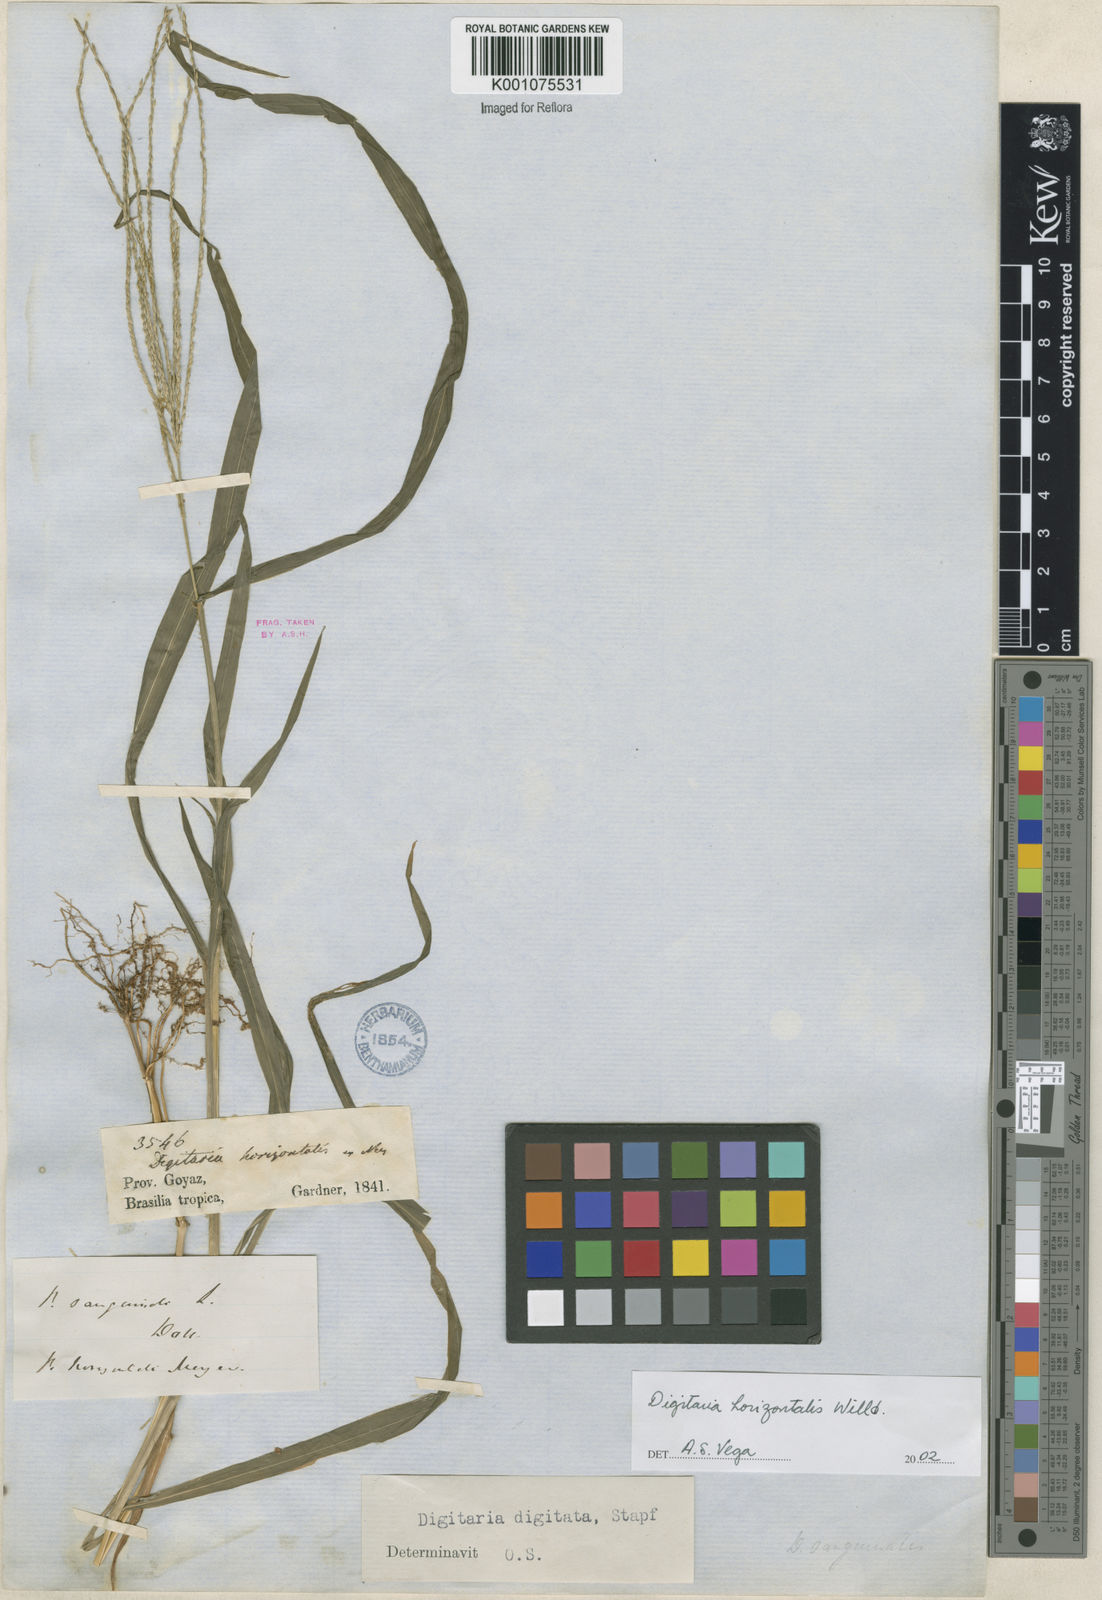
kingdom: Plantae
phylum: Tracheophyta
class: Liliopsida
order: Poales
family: Poaceae
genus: Digitaria
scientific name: Digitaria horizontalis
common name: Jamaican crabgrass
